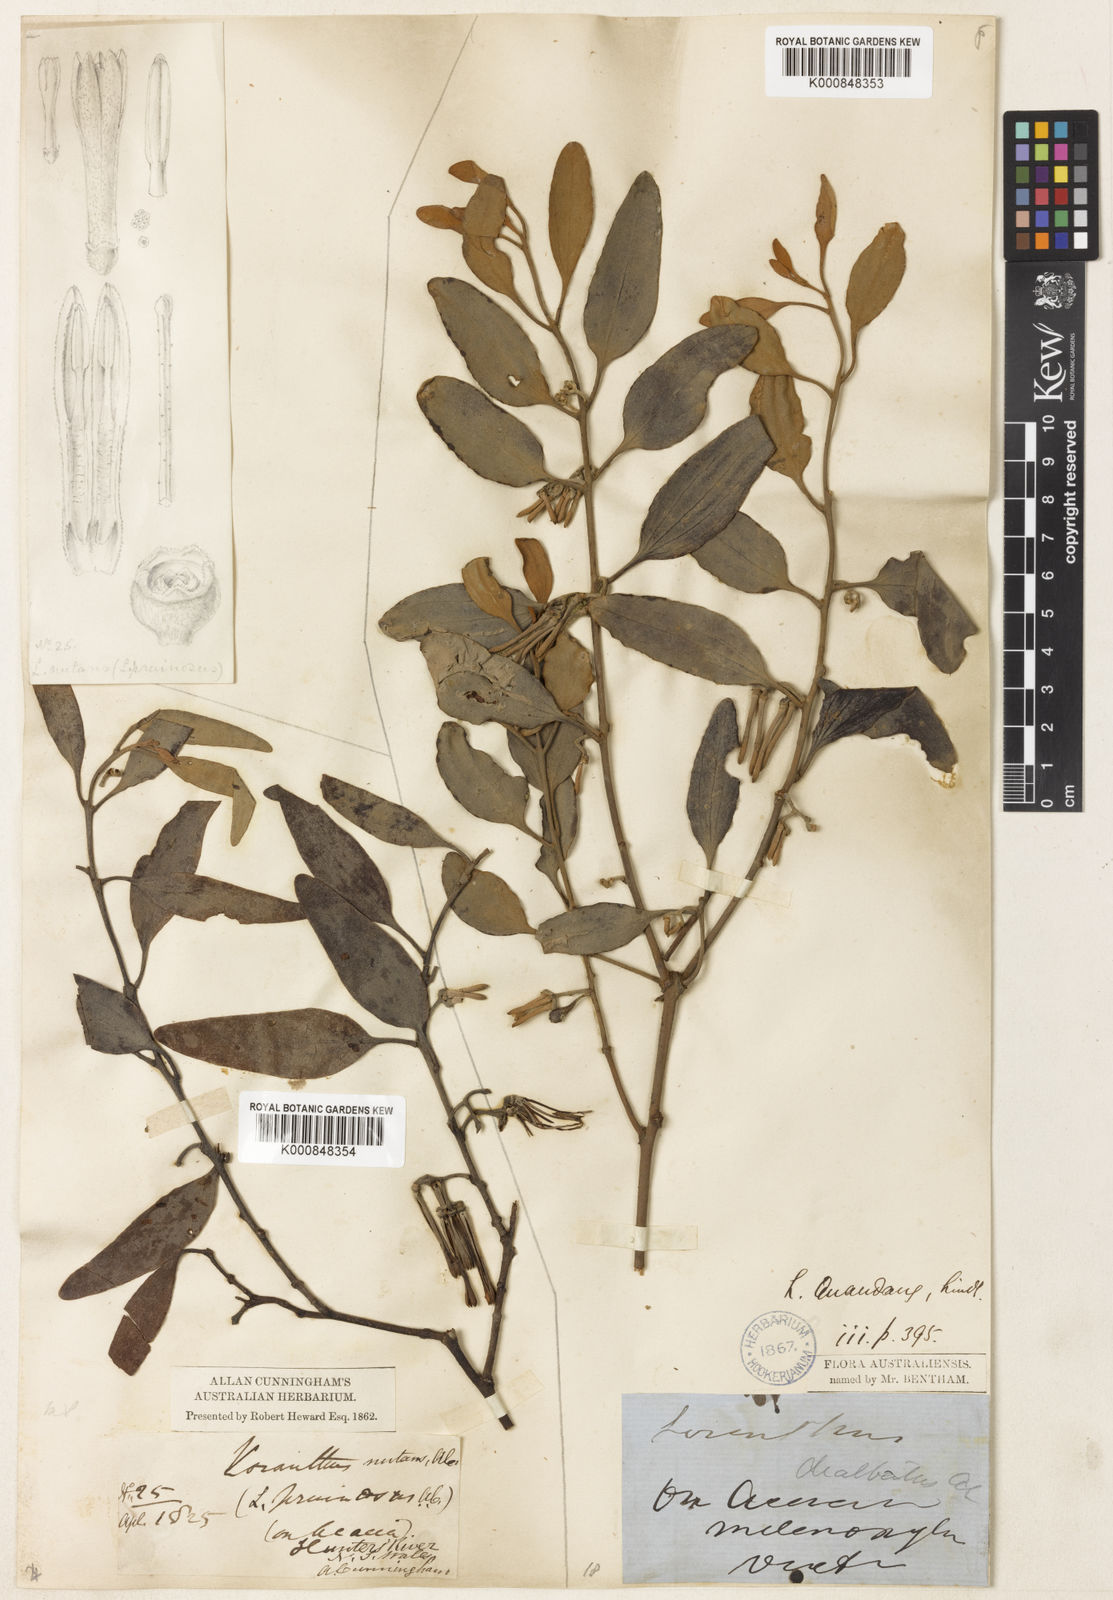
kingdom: Plantae
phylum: Tracheophyta
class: Magnoliopsida
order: Santalales
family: Loranthaceae
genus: Amyema
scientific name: Amyema quandang
